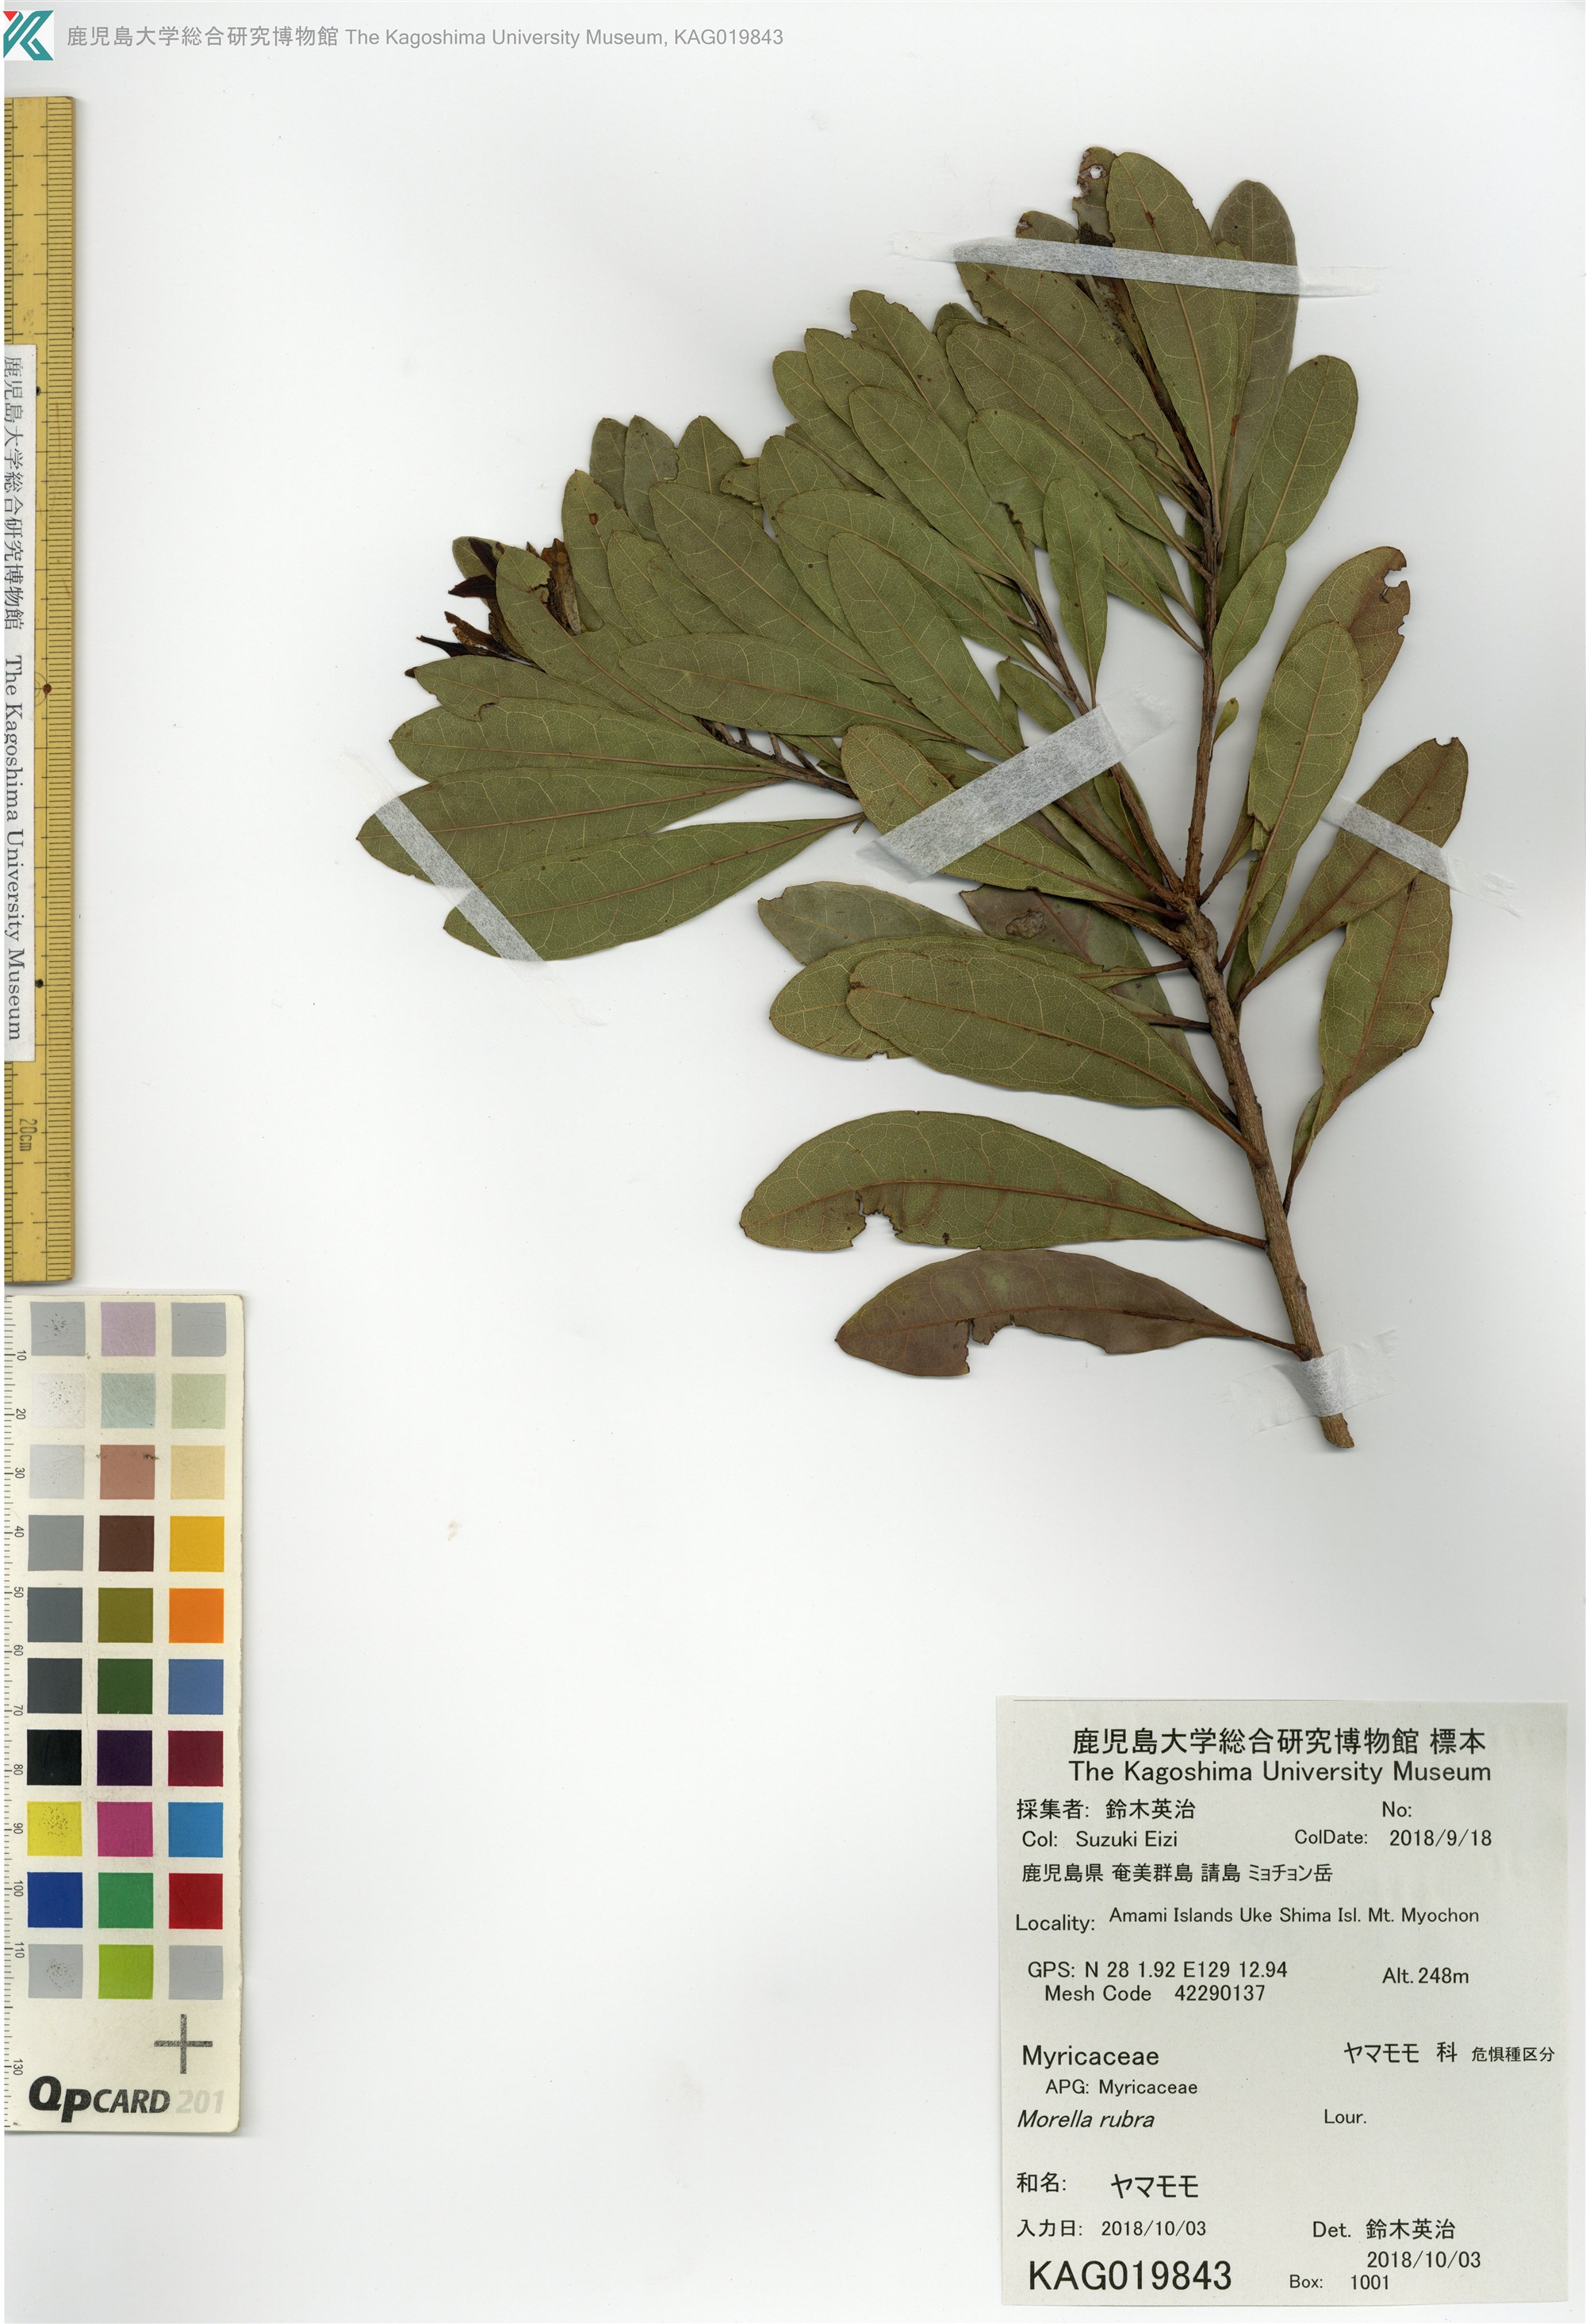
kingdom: Plantae
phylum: Tracheophyta
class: Magnoliopsida
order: Fagales
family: Myricaceae
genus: Morella
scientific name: Morella rubra
